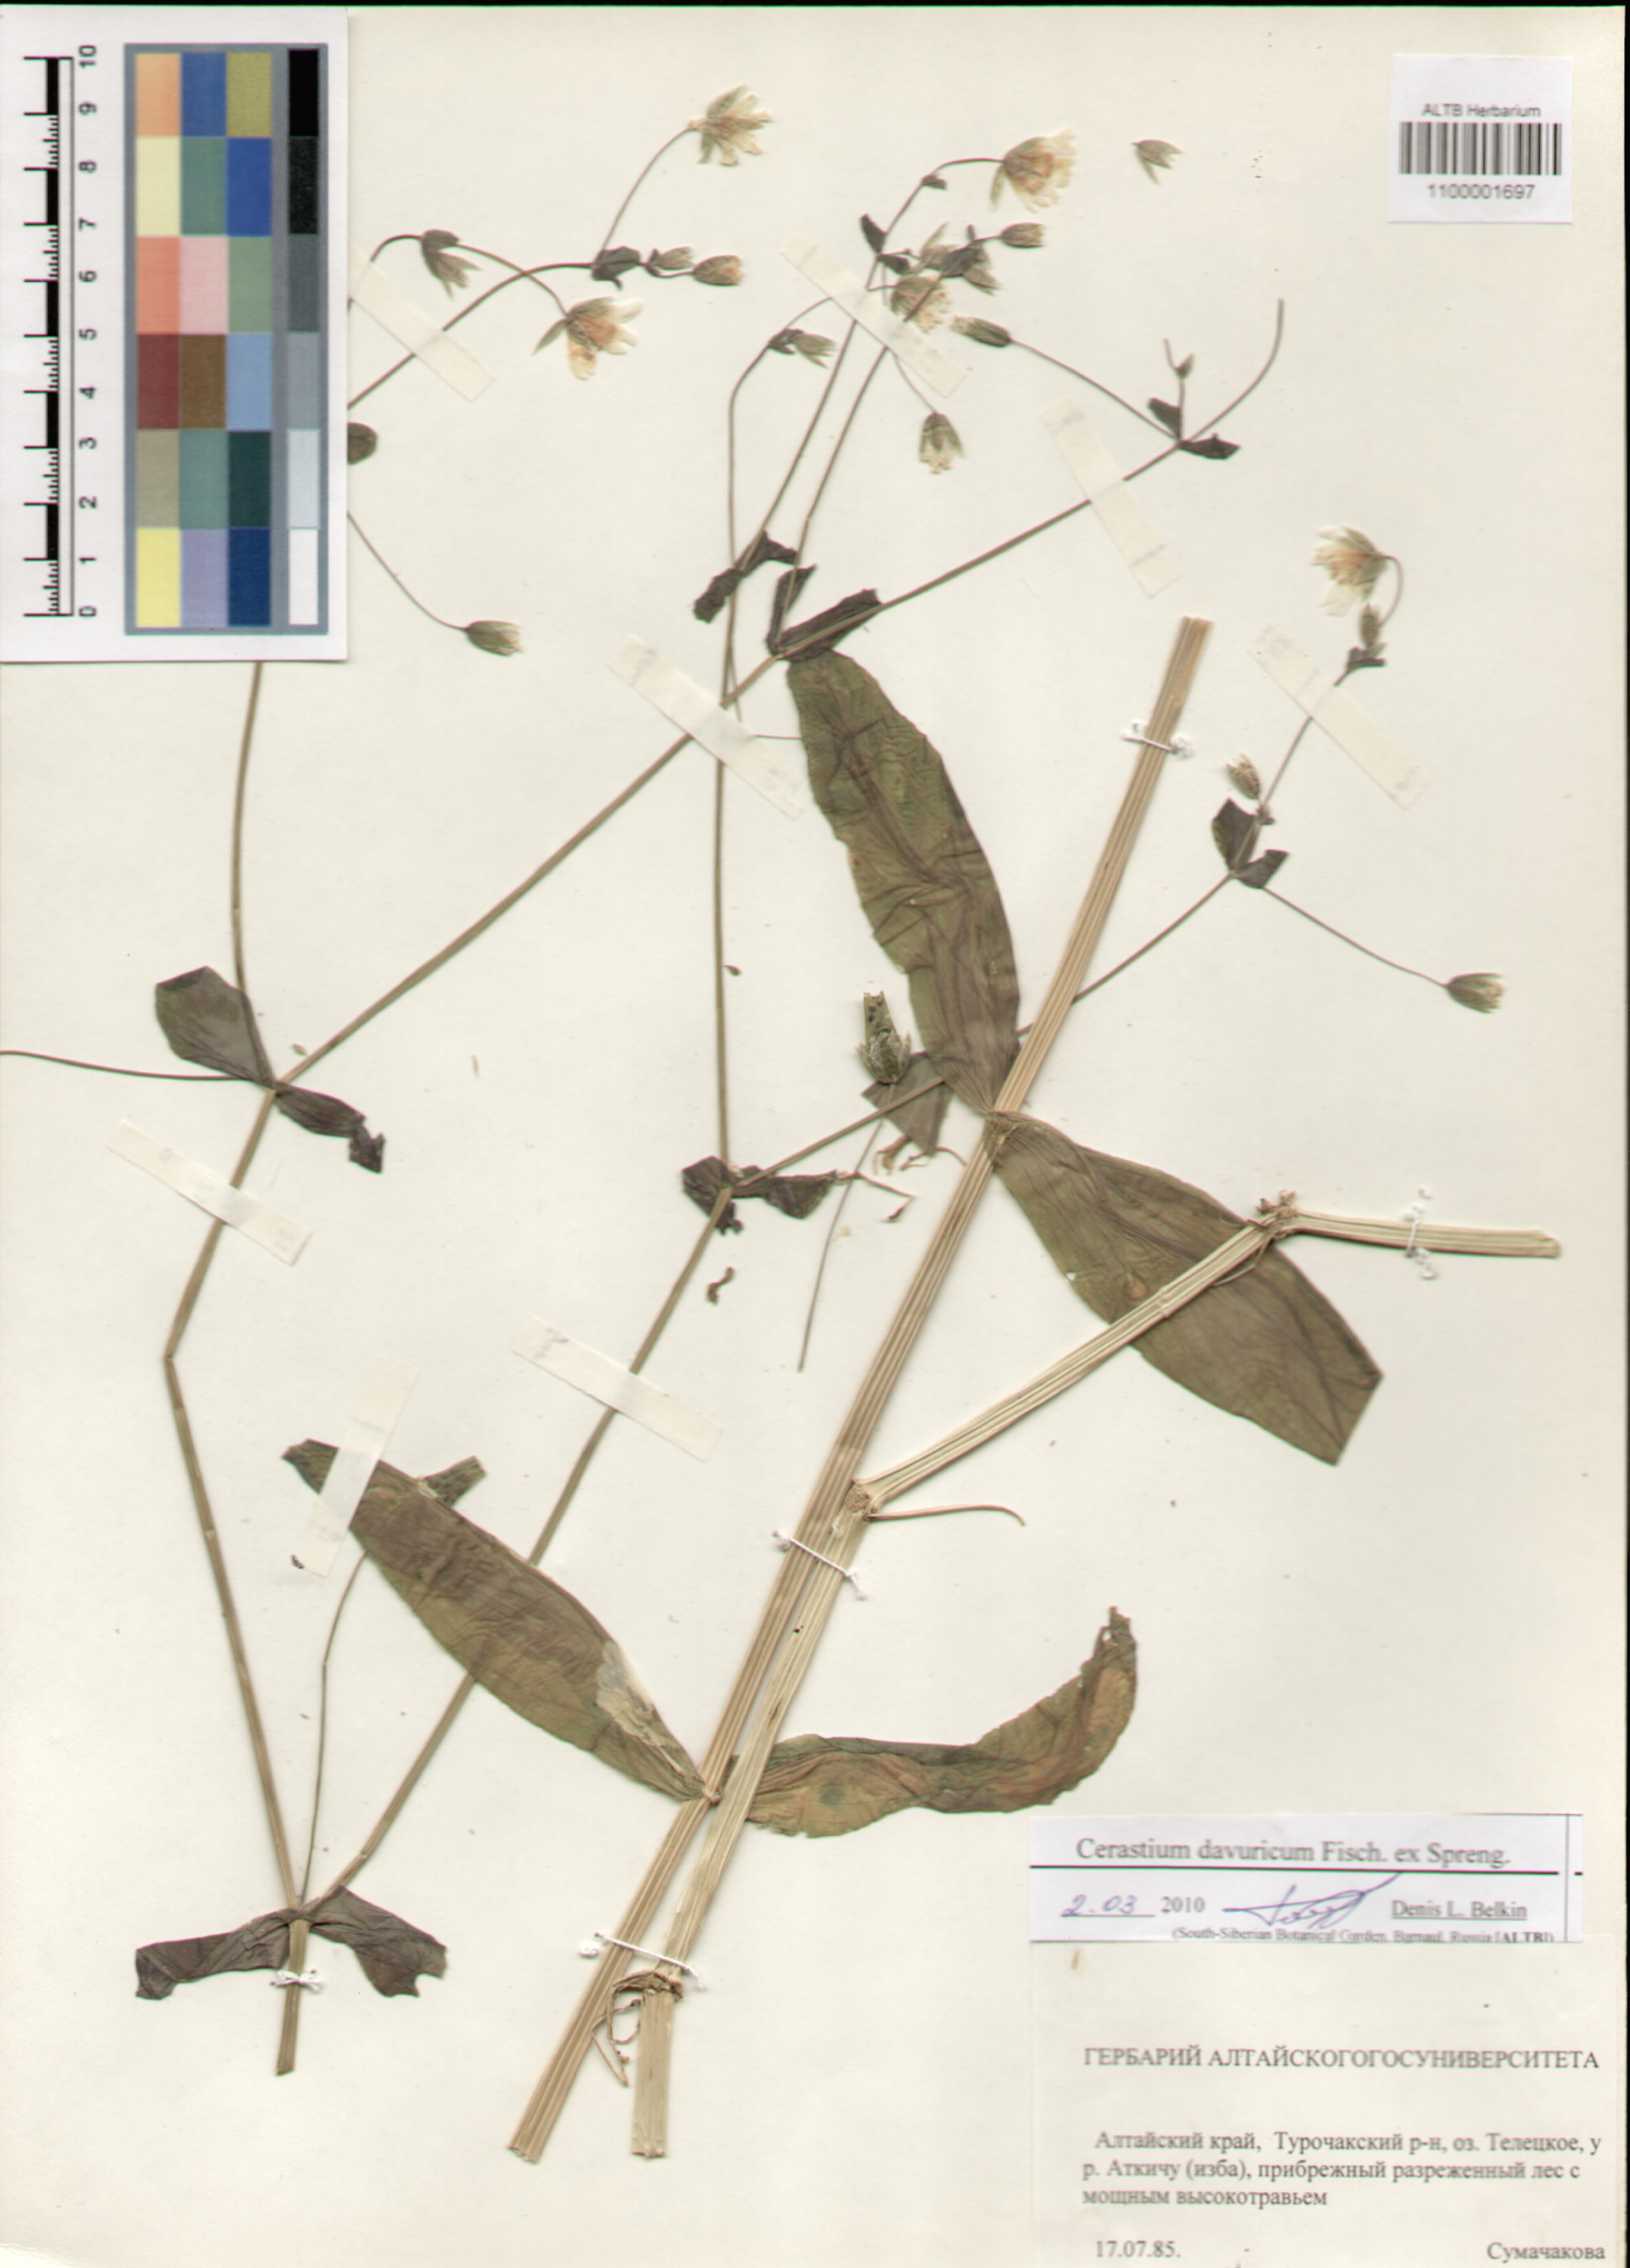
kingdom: Plantae
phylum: Tracheophyta
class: Magnoliopsida
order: Caryophyllales
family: Caryophyllaceae
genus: Dichodon
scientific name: Dichodon davuricum
